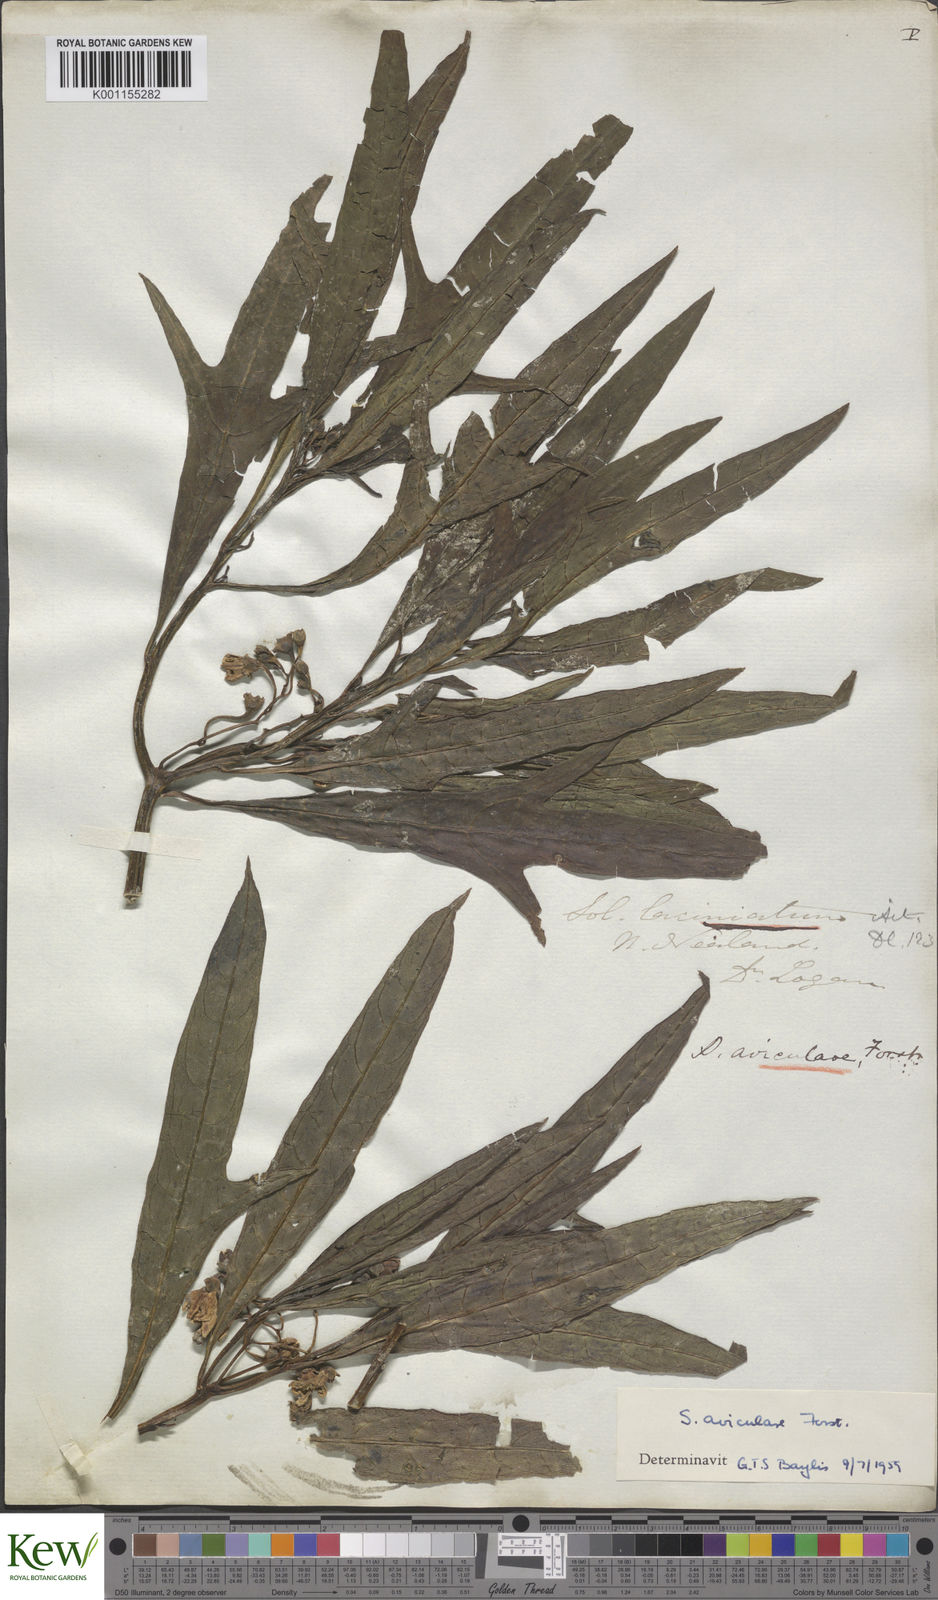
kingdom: Plantae
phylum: Tracheophyta
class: Magnoliopsida
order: Solanales
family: Solanaceae
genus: Solanum
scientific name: Solanum aviculare
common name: New zealand nightshade
